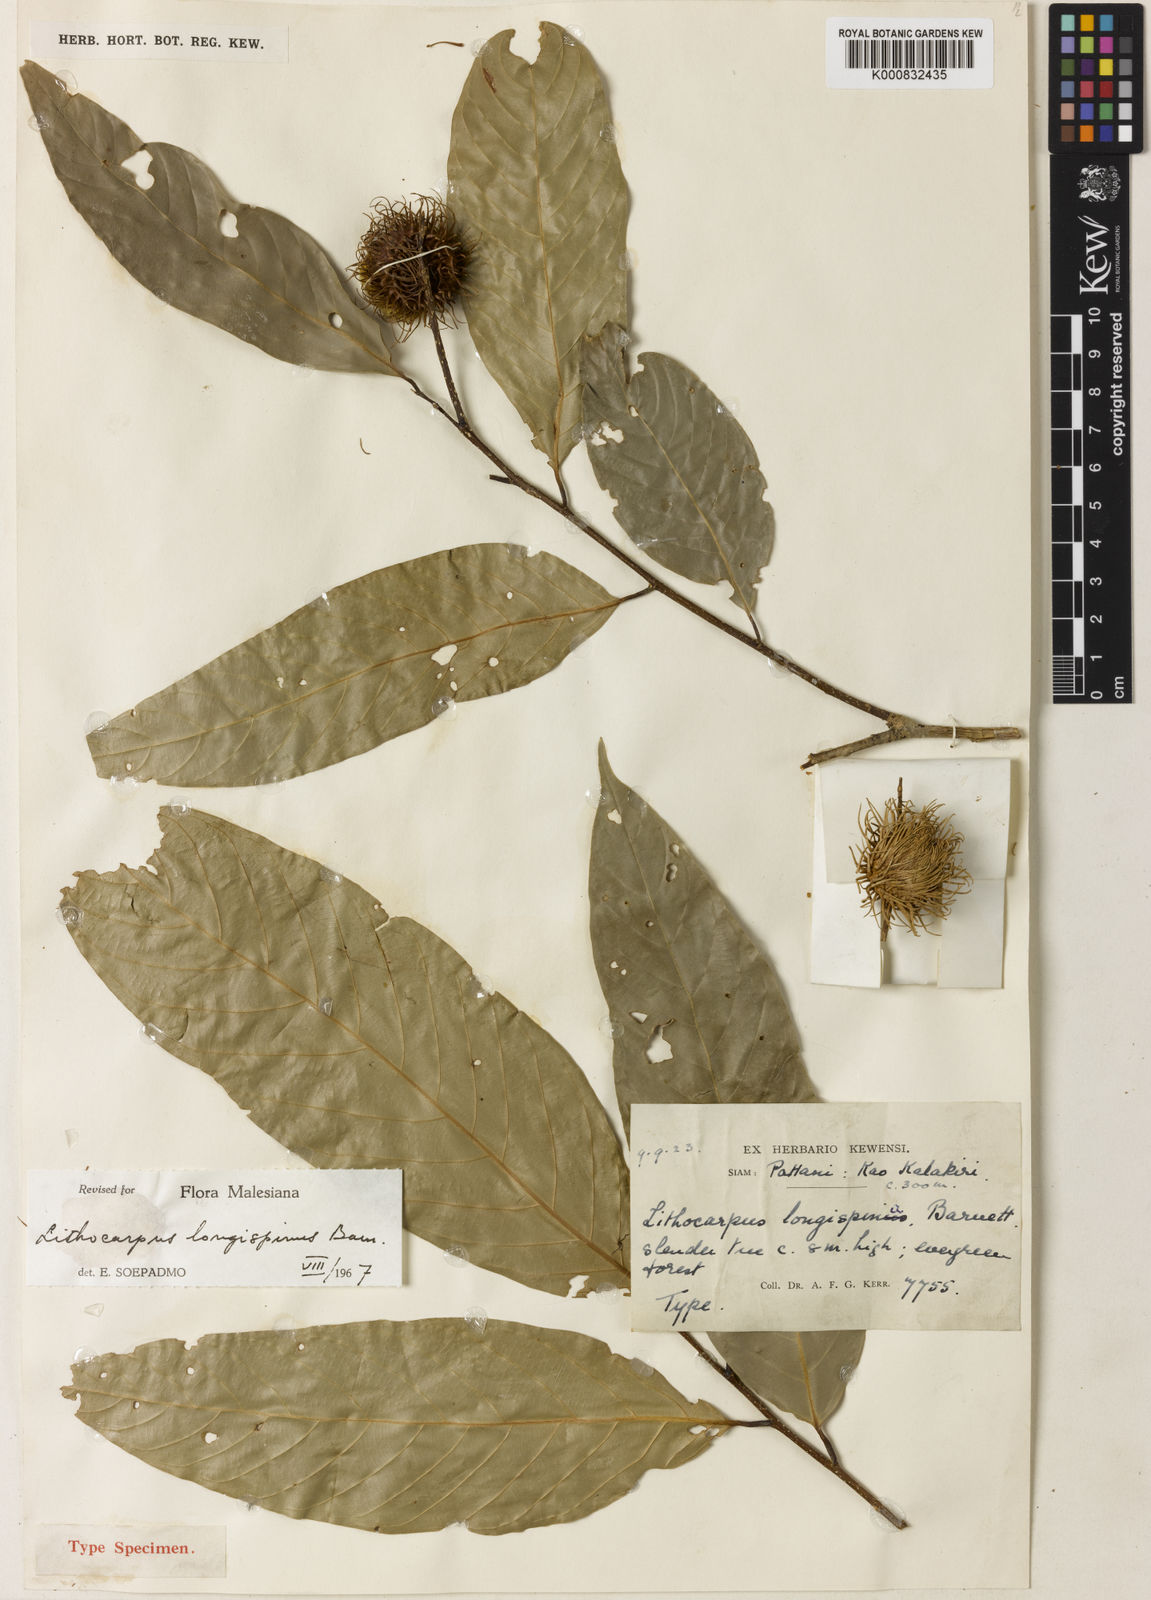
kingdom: Plantae
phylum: Tracheophyta
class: Magnoliopsida
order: Fagales
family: Fagaceae
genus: Lithocarpus
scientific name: Lithocarpus wrayi
